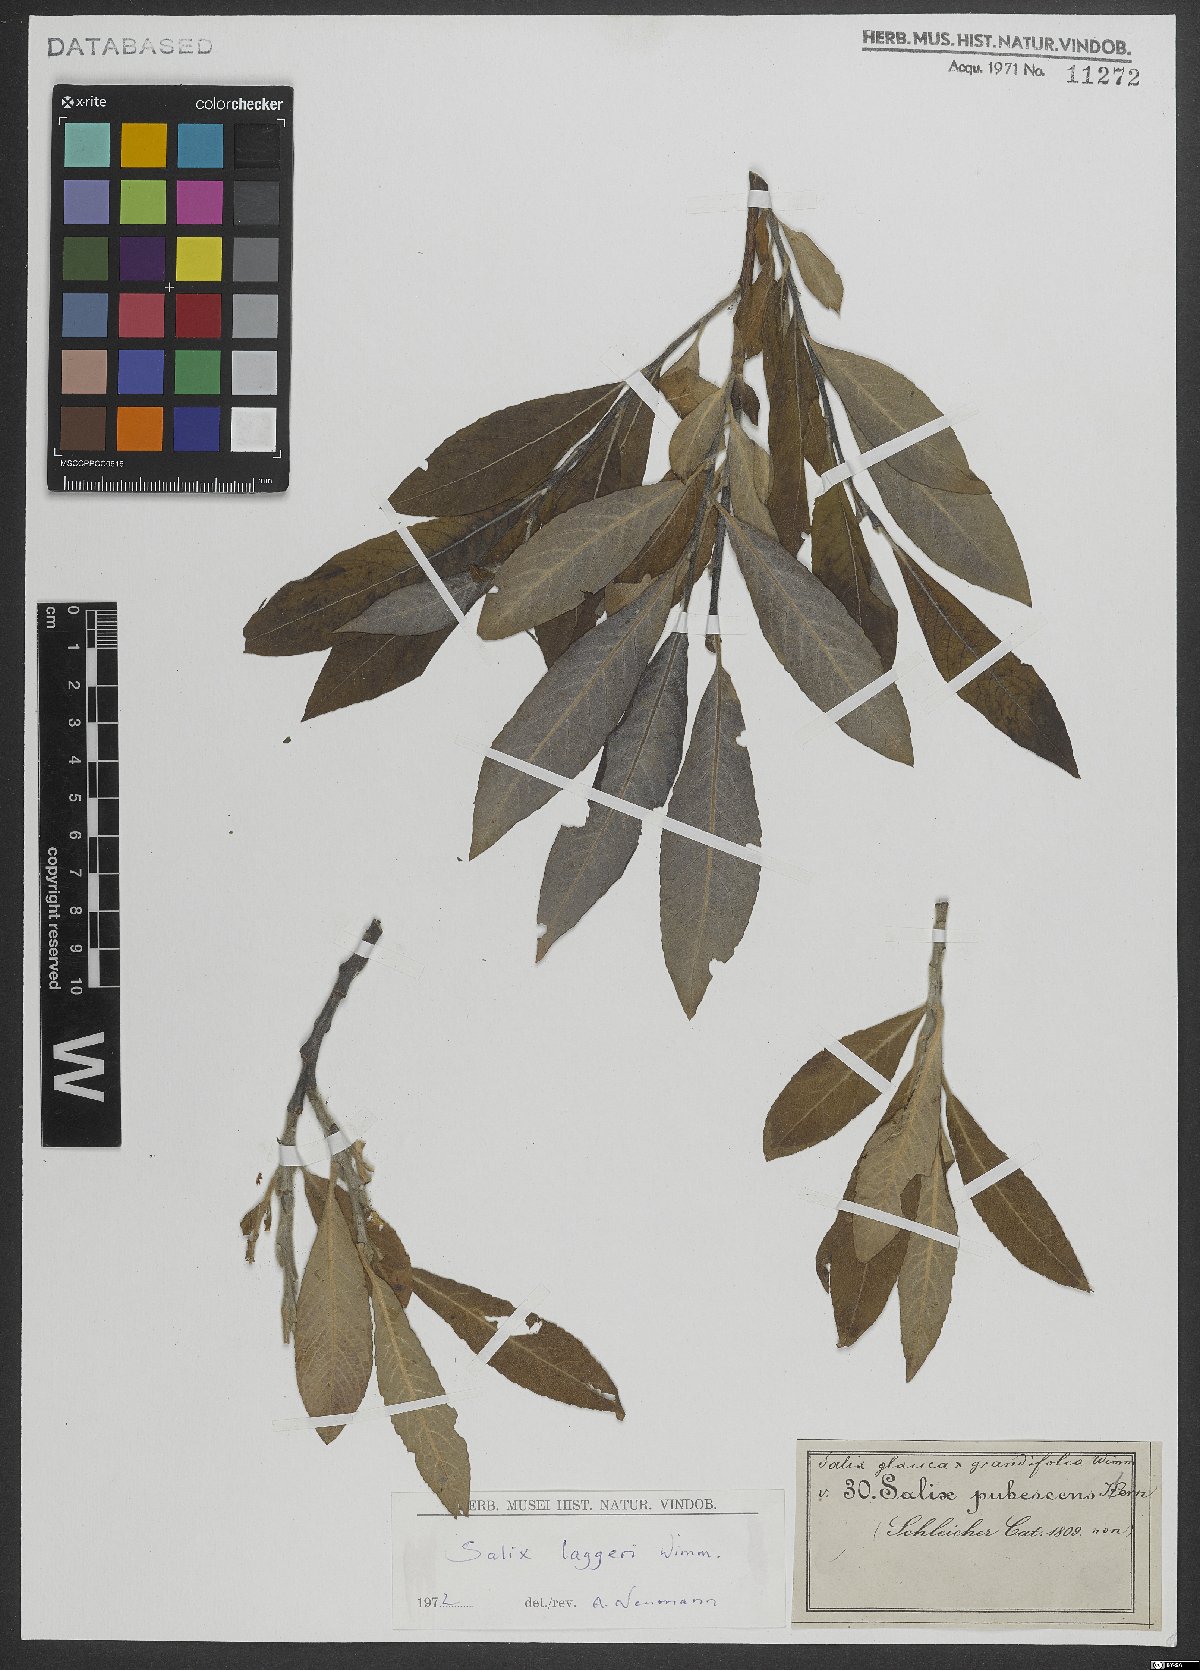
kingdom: Plantae
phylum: Tracheophyta
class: Magnoliopsida
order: Malpighiales
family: Salicaceae
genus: Salix
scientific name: Salix laggeri
